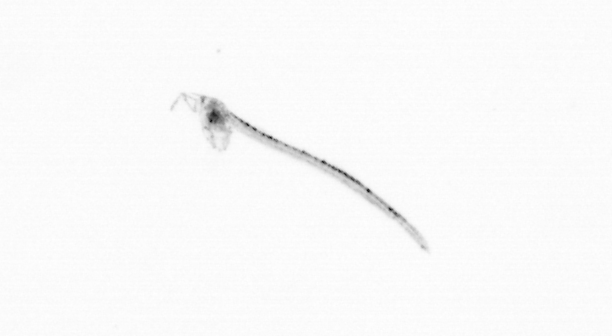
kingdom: Animalia
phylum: Chordata
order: Copelata
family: Fritillariidae
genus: Appendicularia
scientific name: Appendicularia
